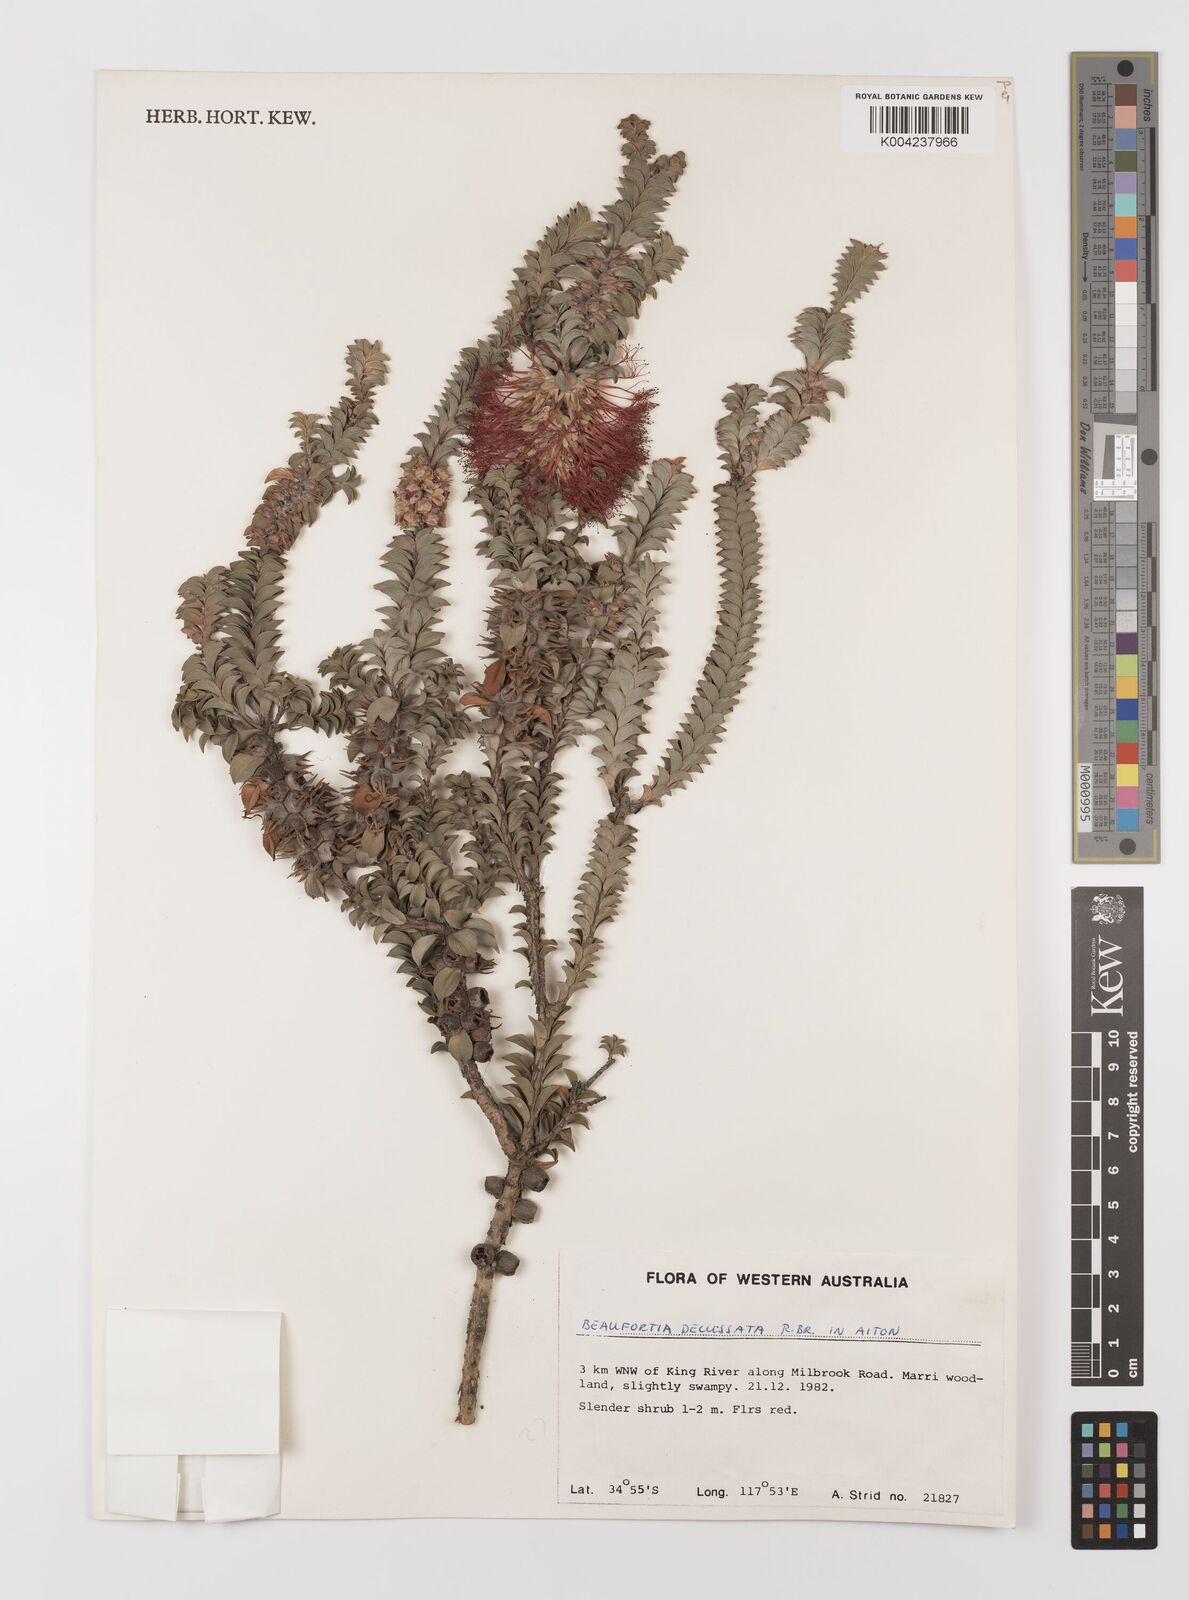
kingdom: Plantae
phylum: Tracheophyta
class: Magnoliopsida
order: Myrtales
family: Myrtaceae
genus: Melaleuca
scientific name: Melaleuca transversa
